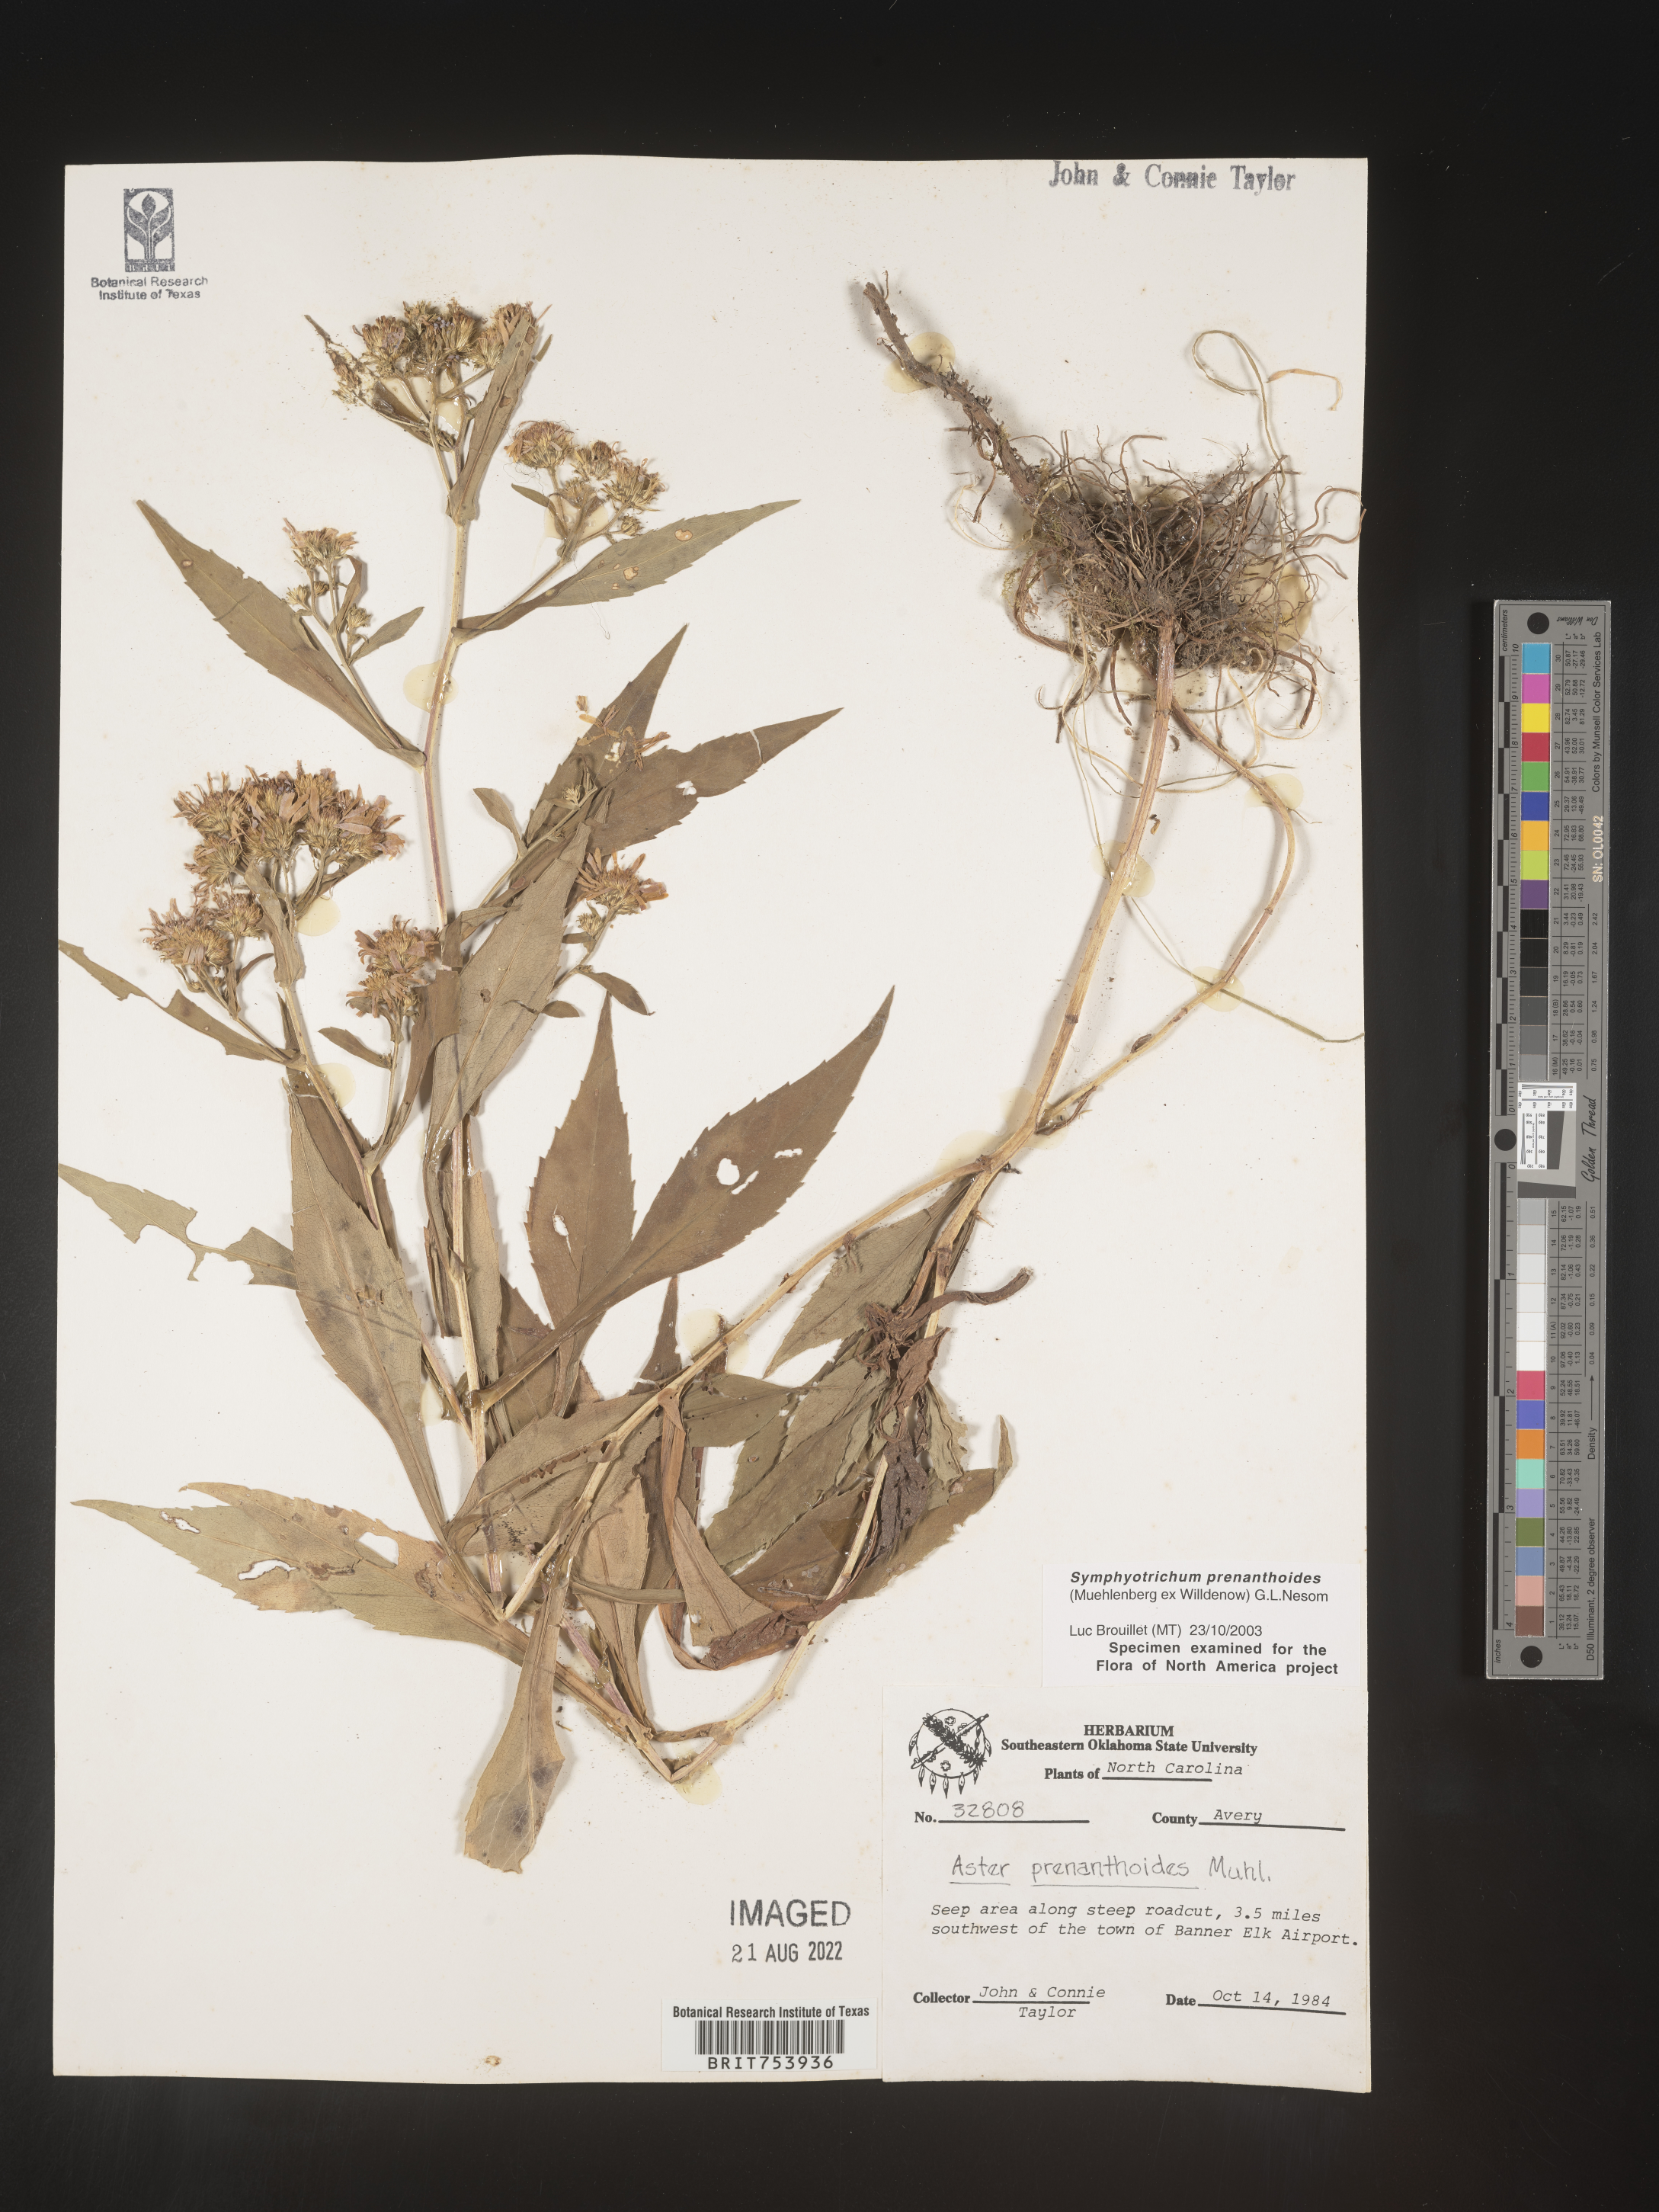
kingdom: Plantae
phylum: Tracheophyta
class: Magnoliopsida
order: Asterales
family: Asteraceae
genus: Symphyotrichum
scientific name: Symphyotrichum prenanthoides
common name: Crooked-stem aster
